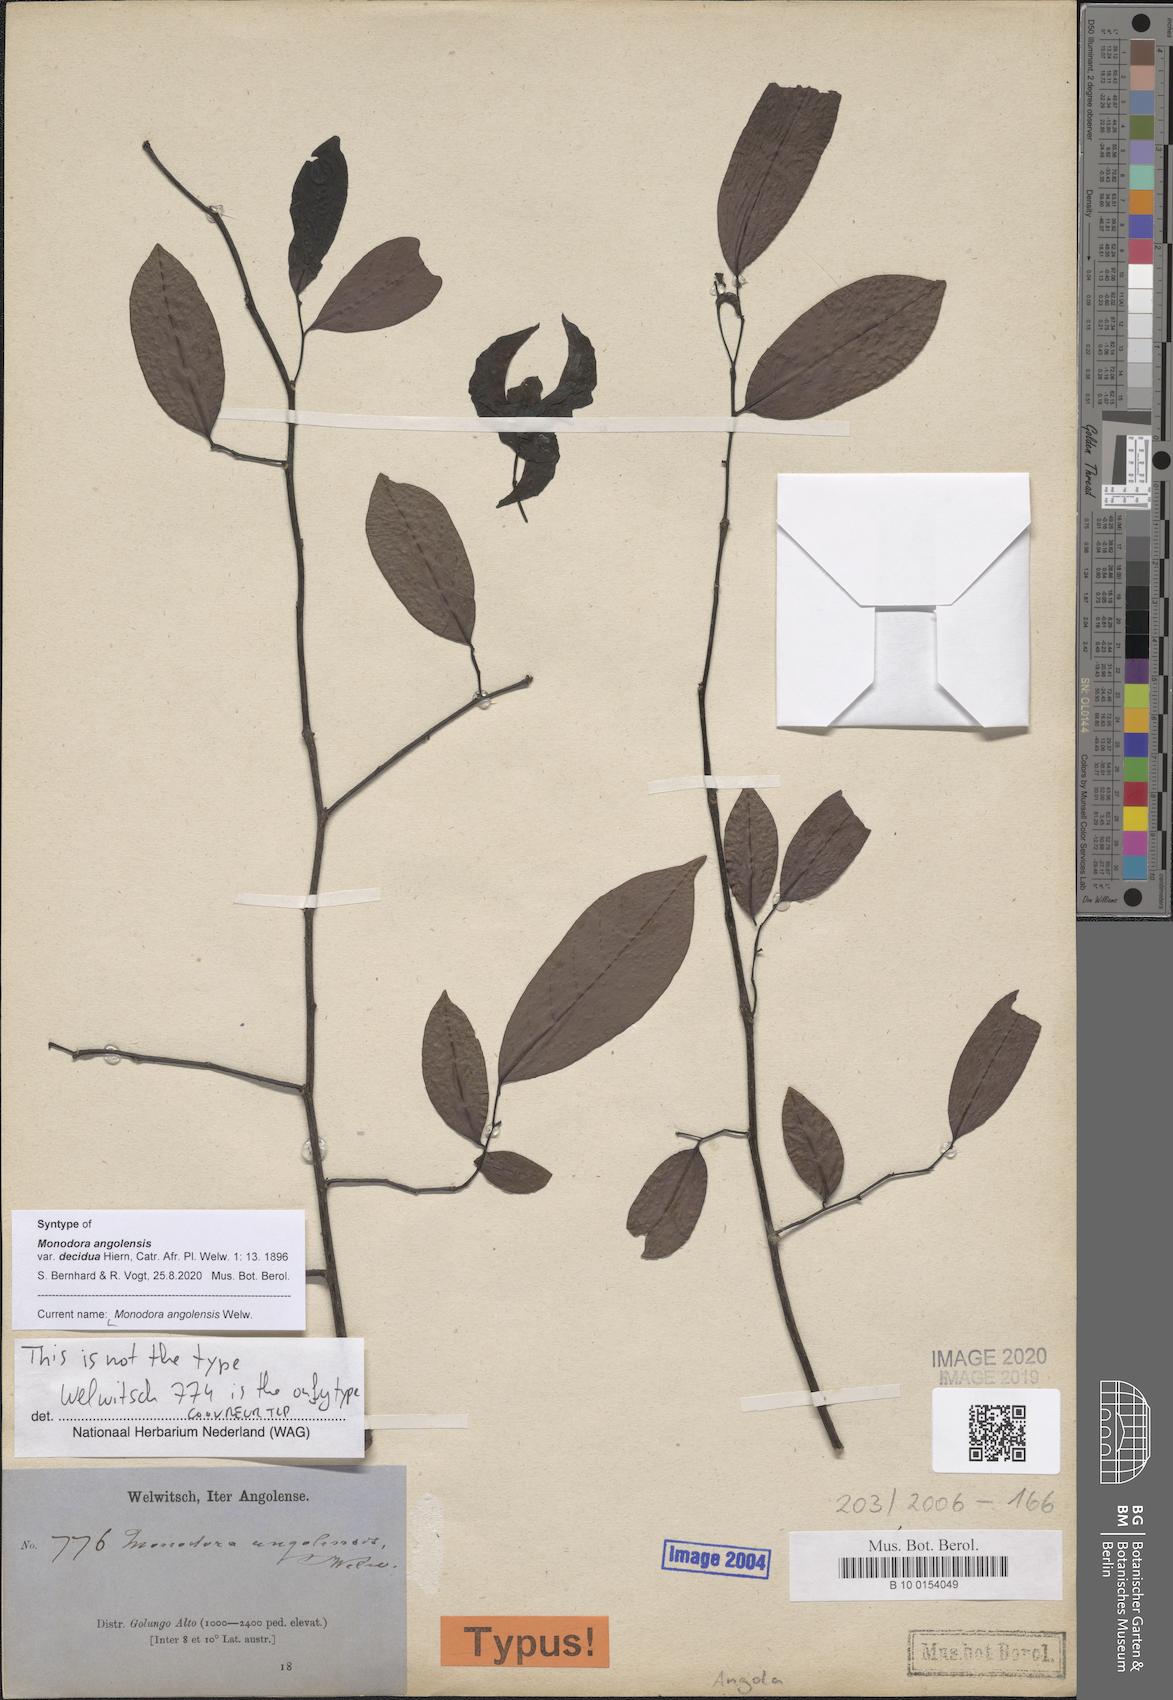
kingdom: Plantae
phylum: Tracheophyta
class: Magnoliopsida
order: Magnoliales
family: Annonaceae
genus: Monodora
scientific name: Monodora angolensis
